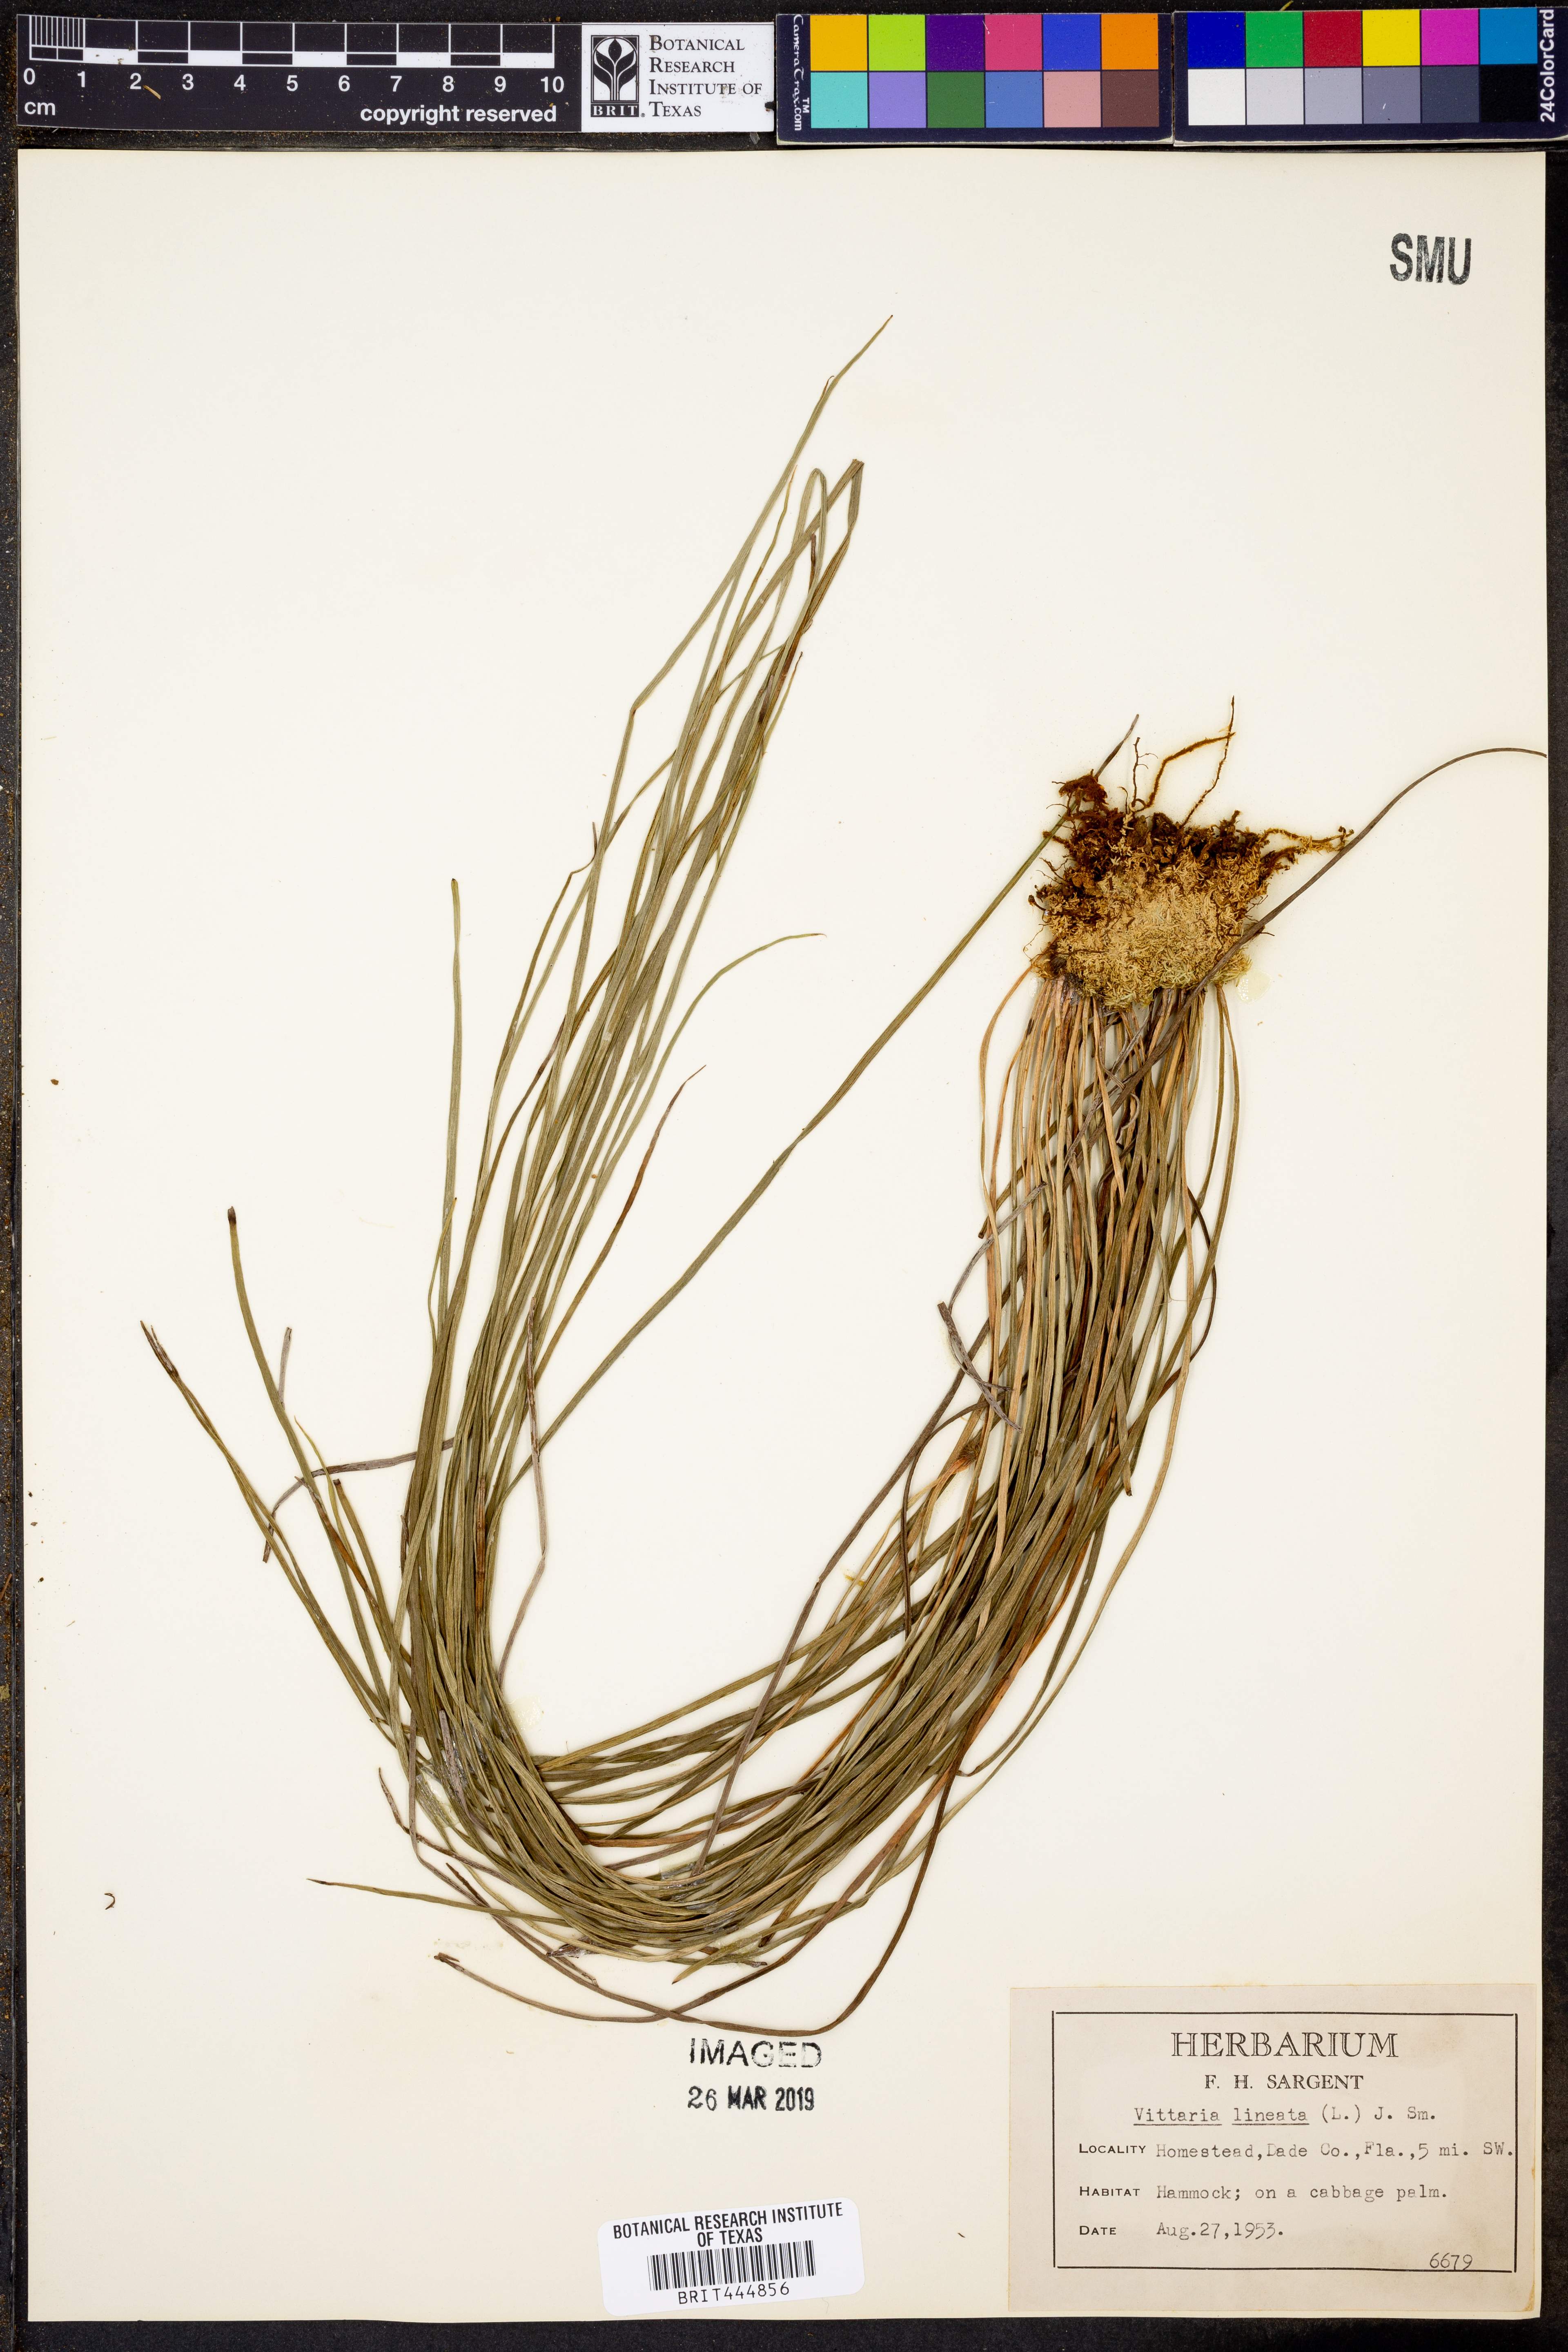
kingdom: Plantae
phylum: Tracheophyta
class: Polypodiopsida
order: Polypodiales
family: Pteridaceae
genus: Vittaria
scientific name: Vittaria lineata
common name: Shoestring fern
